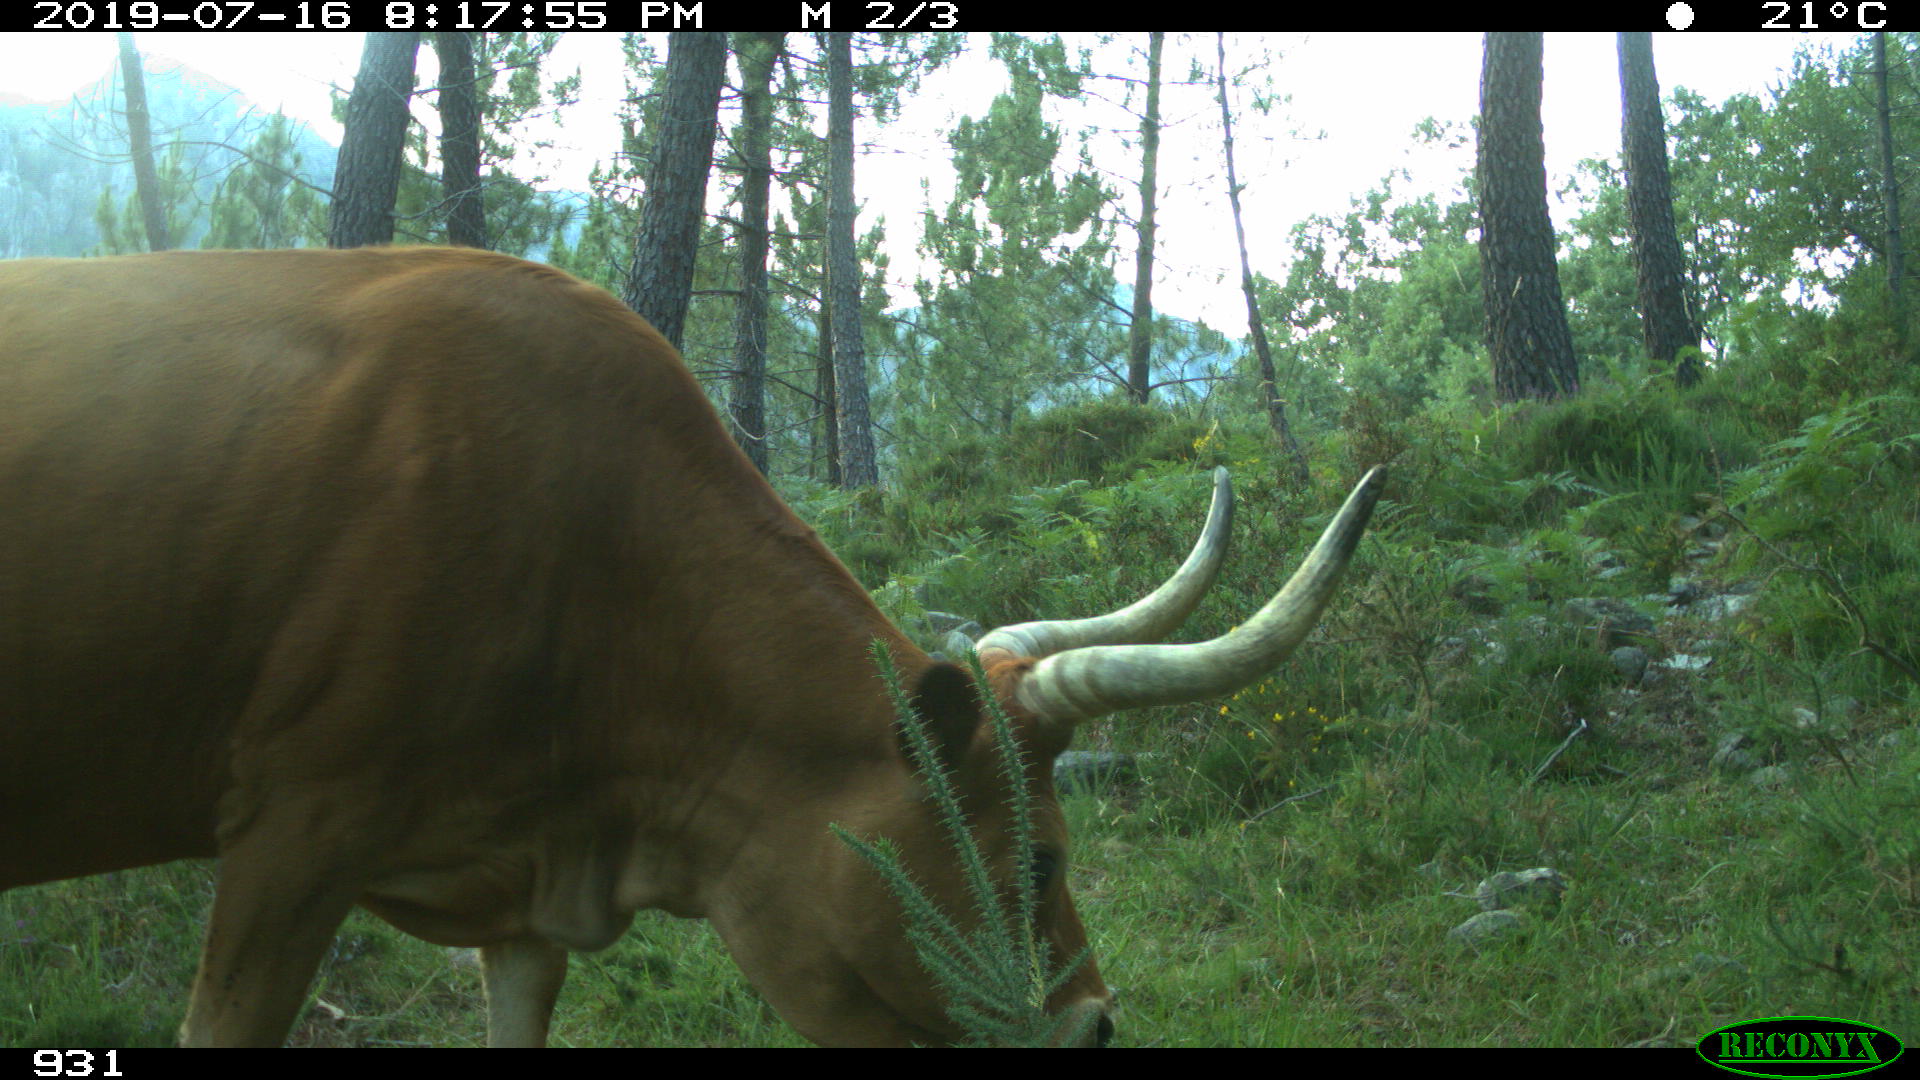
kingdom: Animalia
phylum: Chordata
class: Mammalia
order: Artiodactyla
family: Bovidae
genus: Bos
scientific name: Bos taurus
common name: Domesticated cattle
